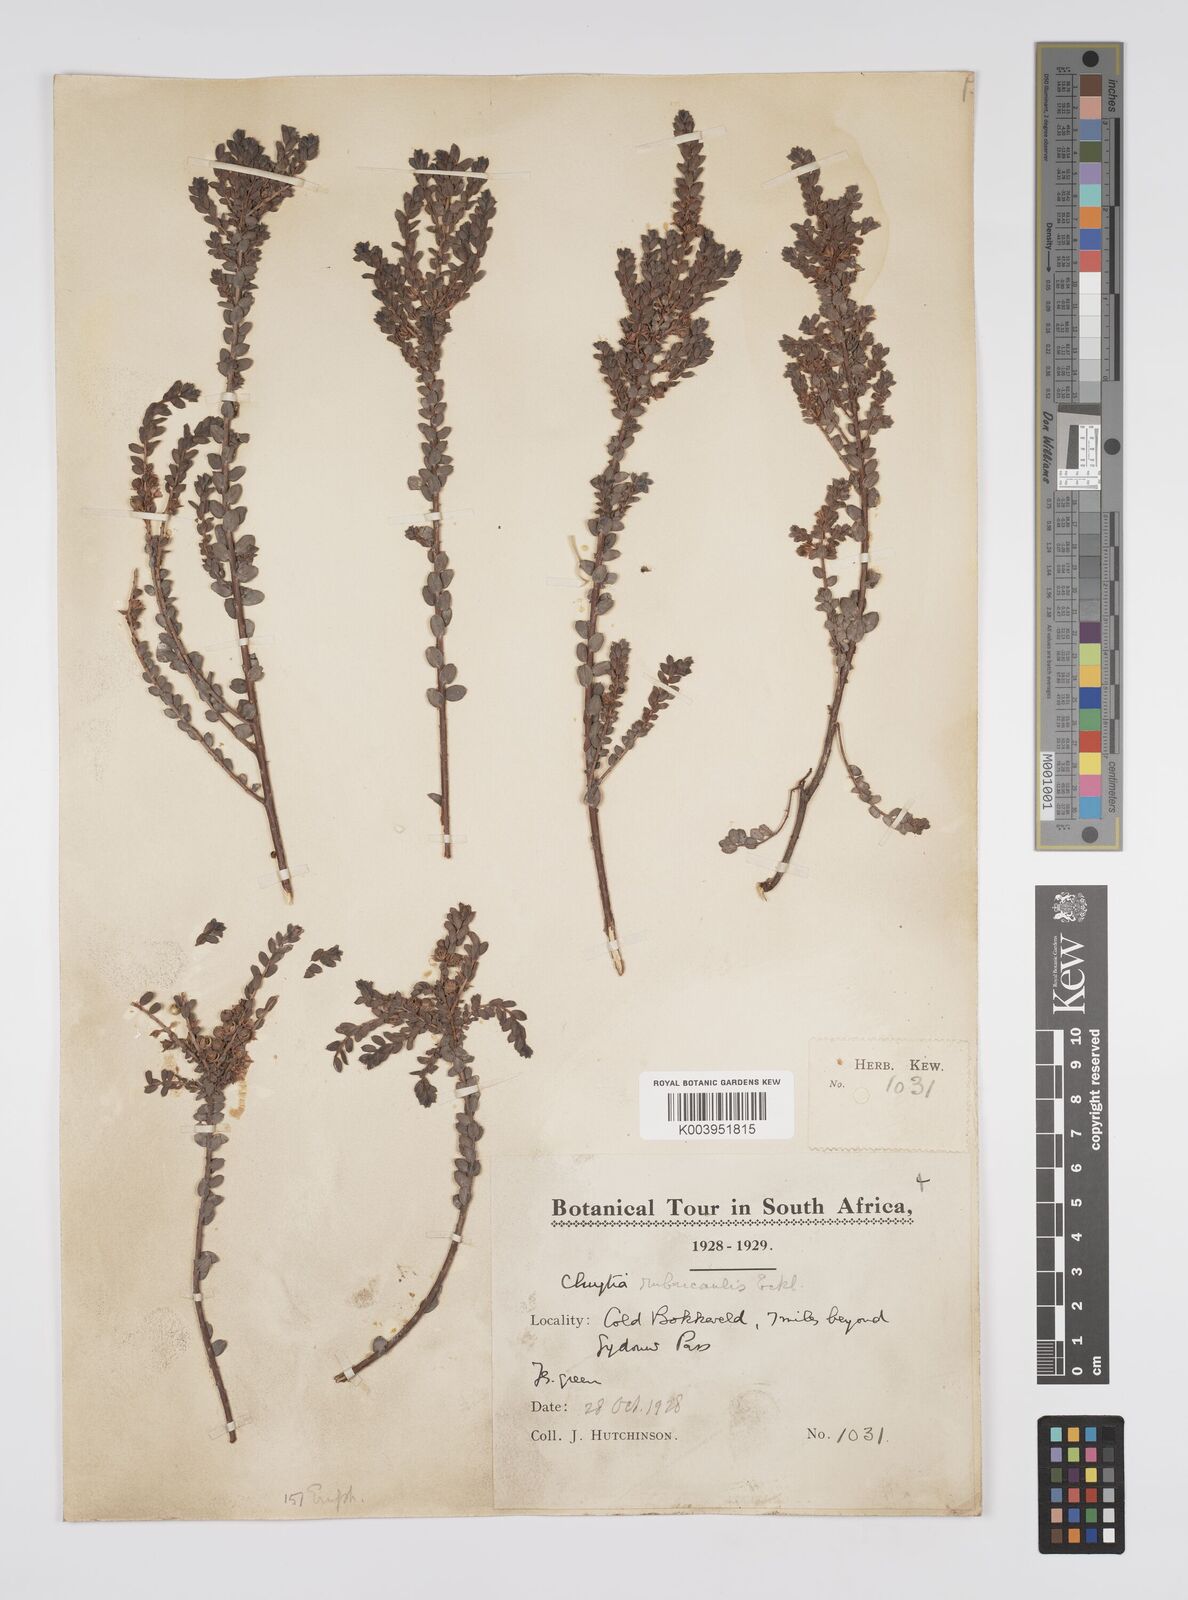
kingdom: Plantae
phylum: Tracheophyta
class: Magnoliopsida
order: Malpighiales
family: Peraceae
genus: Clutia
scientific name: Clutia rubricaulis
